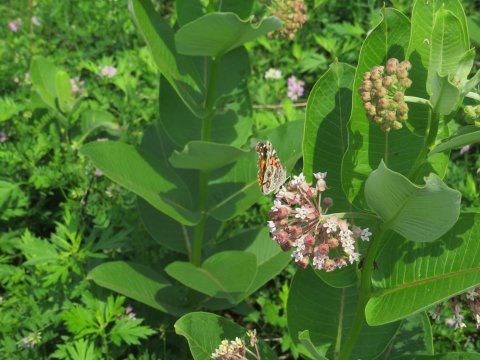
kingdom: Animalia
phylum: Arthropoda
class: Insecta
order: Lepidoptera
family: Nymphalidae
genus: Vanessa
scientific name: Vanessa virginiensis
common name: American Lady
